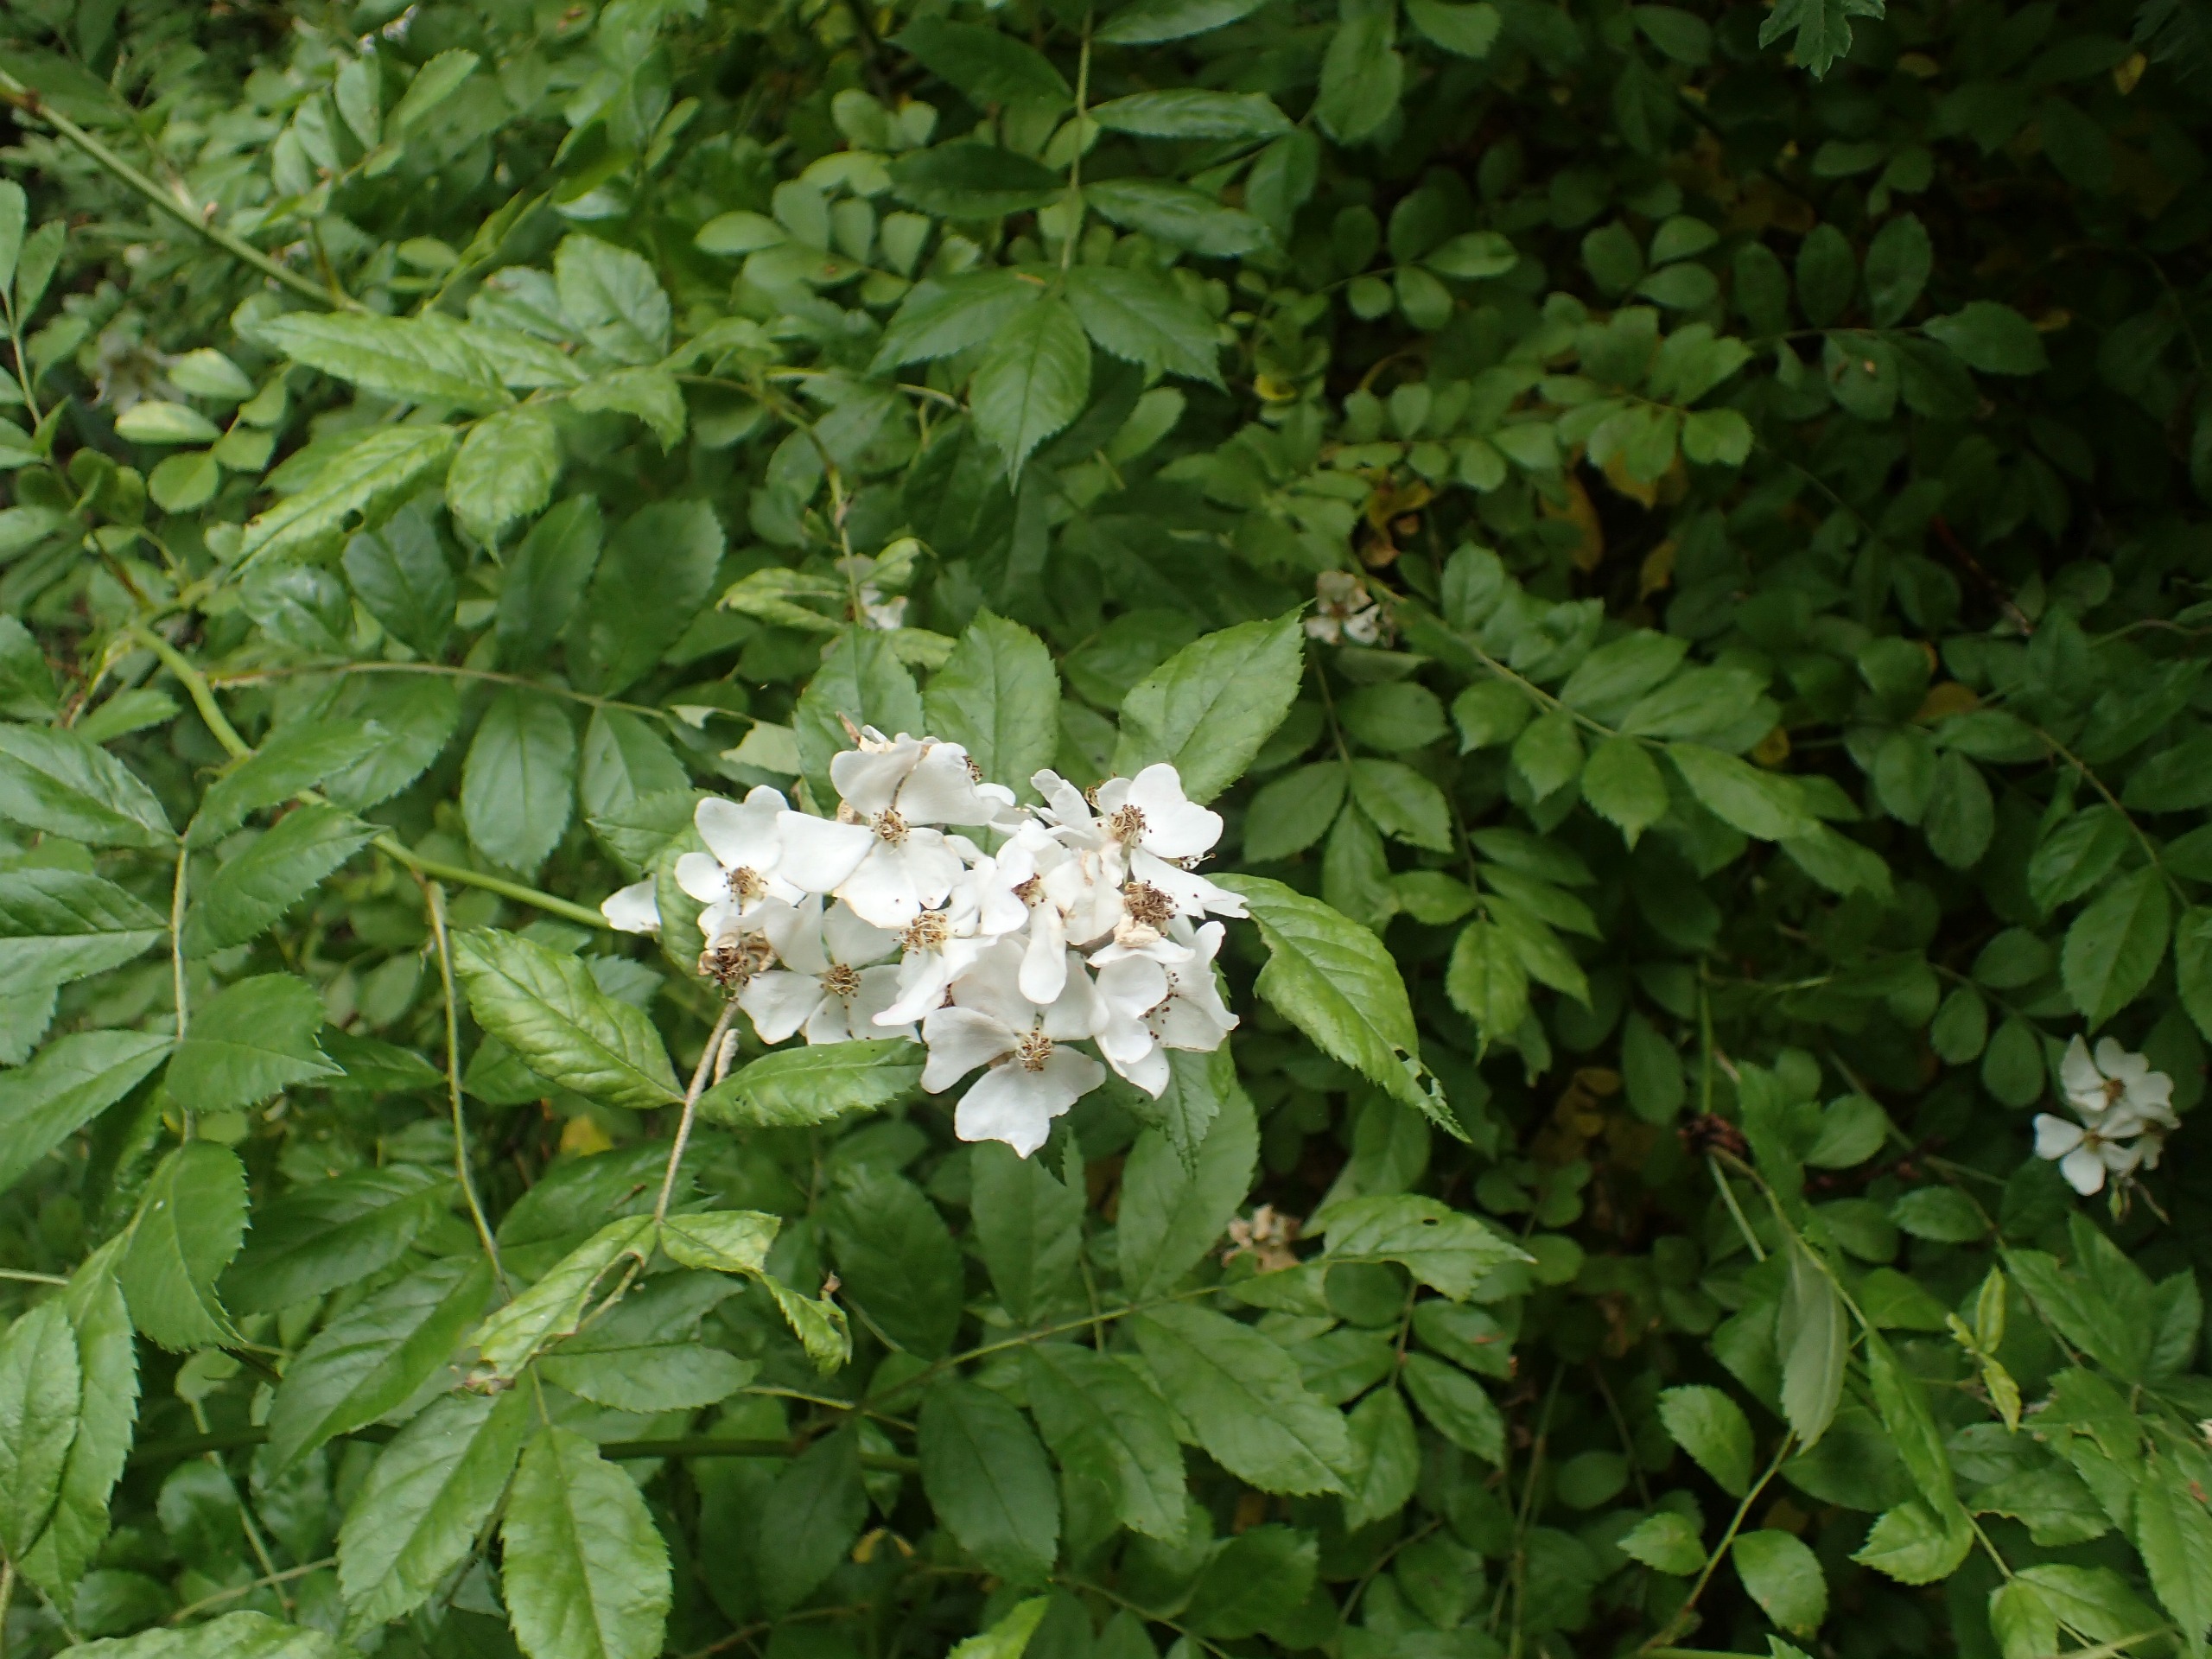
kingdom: Plantae
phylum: Tracheophyta
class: Magnoliopsida
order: Rosales
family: Rosaceae
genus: Rosa
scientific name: Rosa multiflora
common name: Mangeblomstret rose
